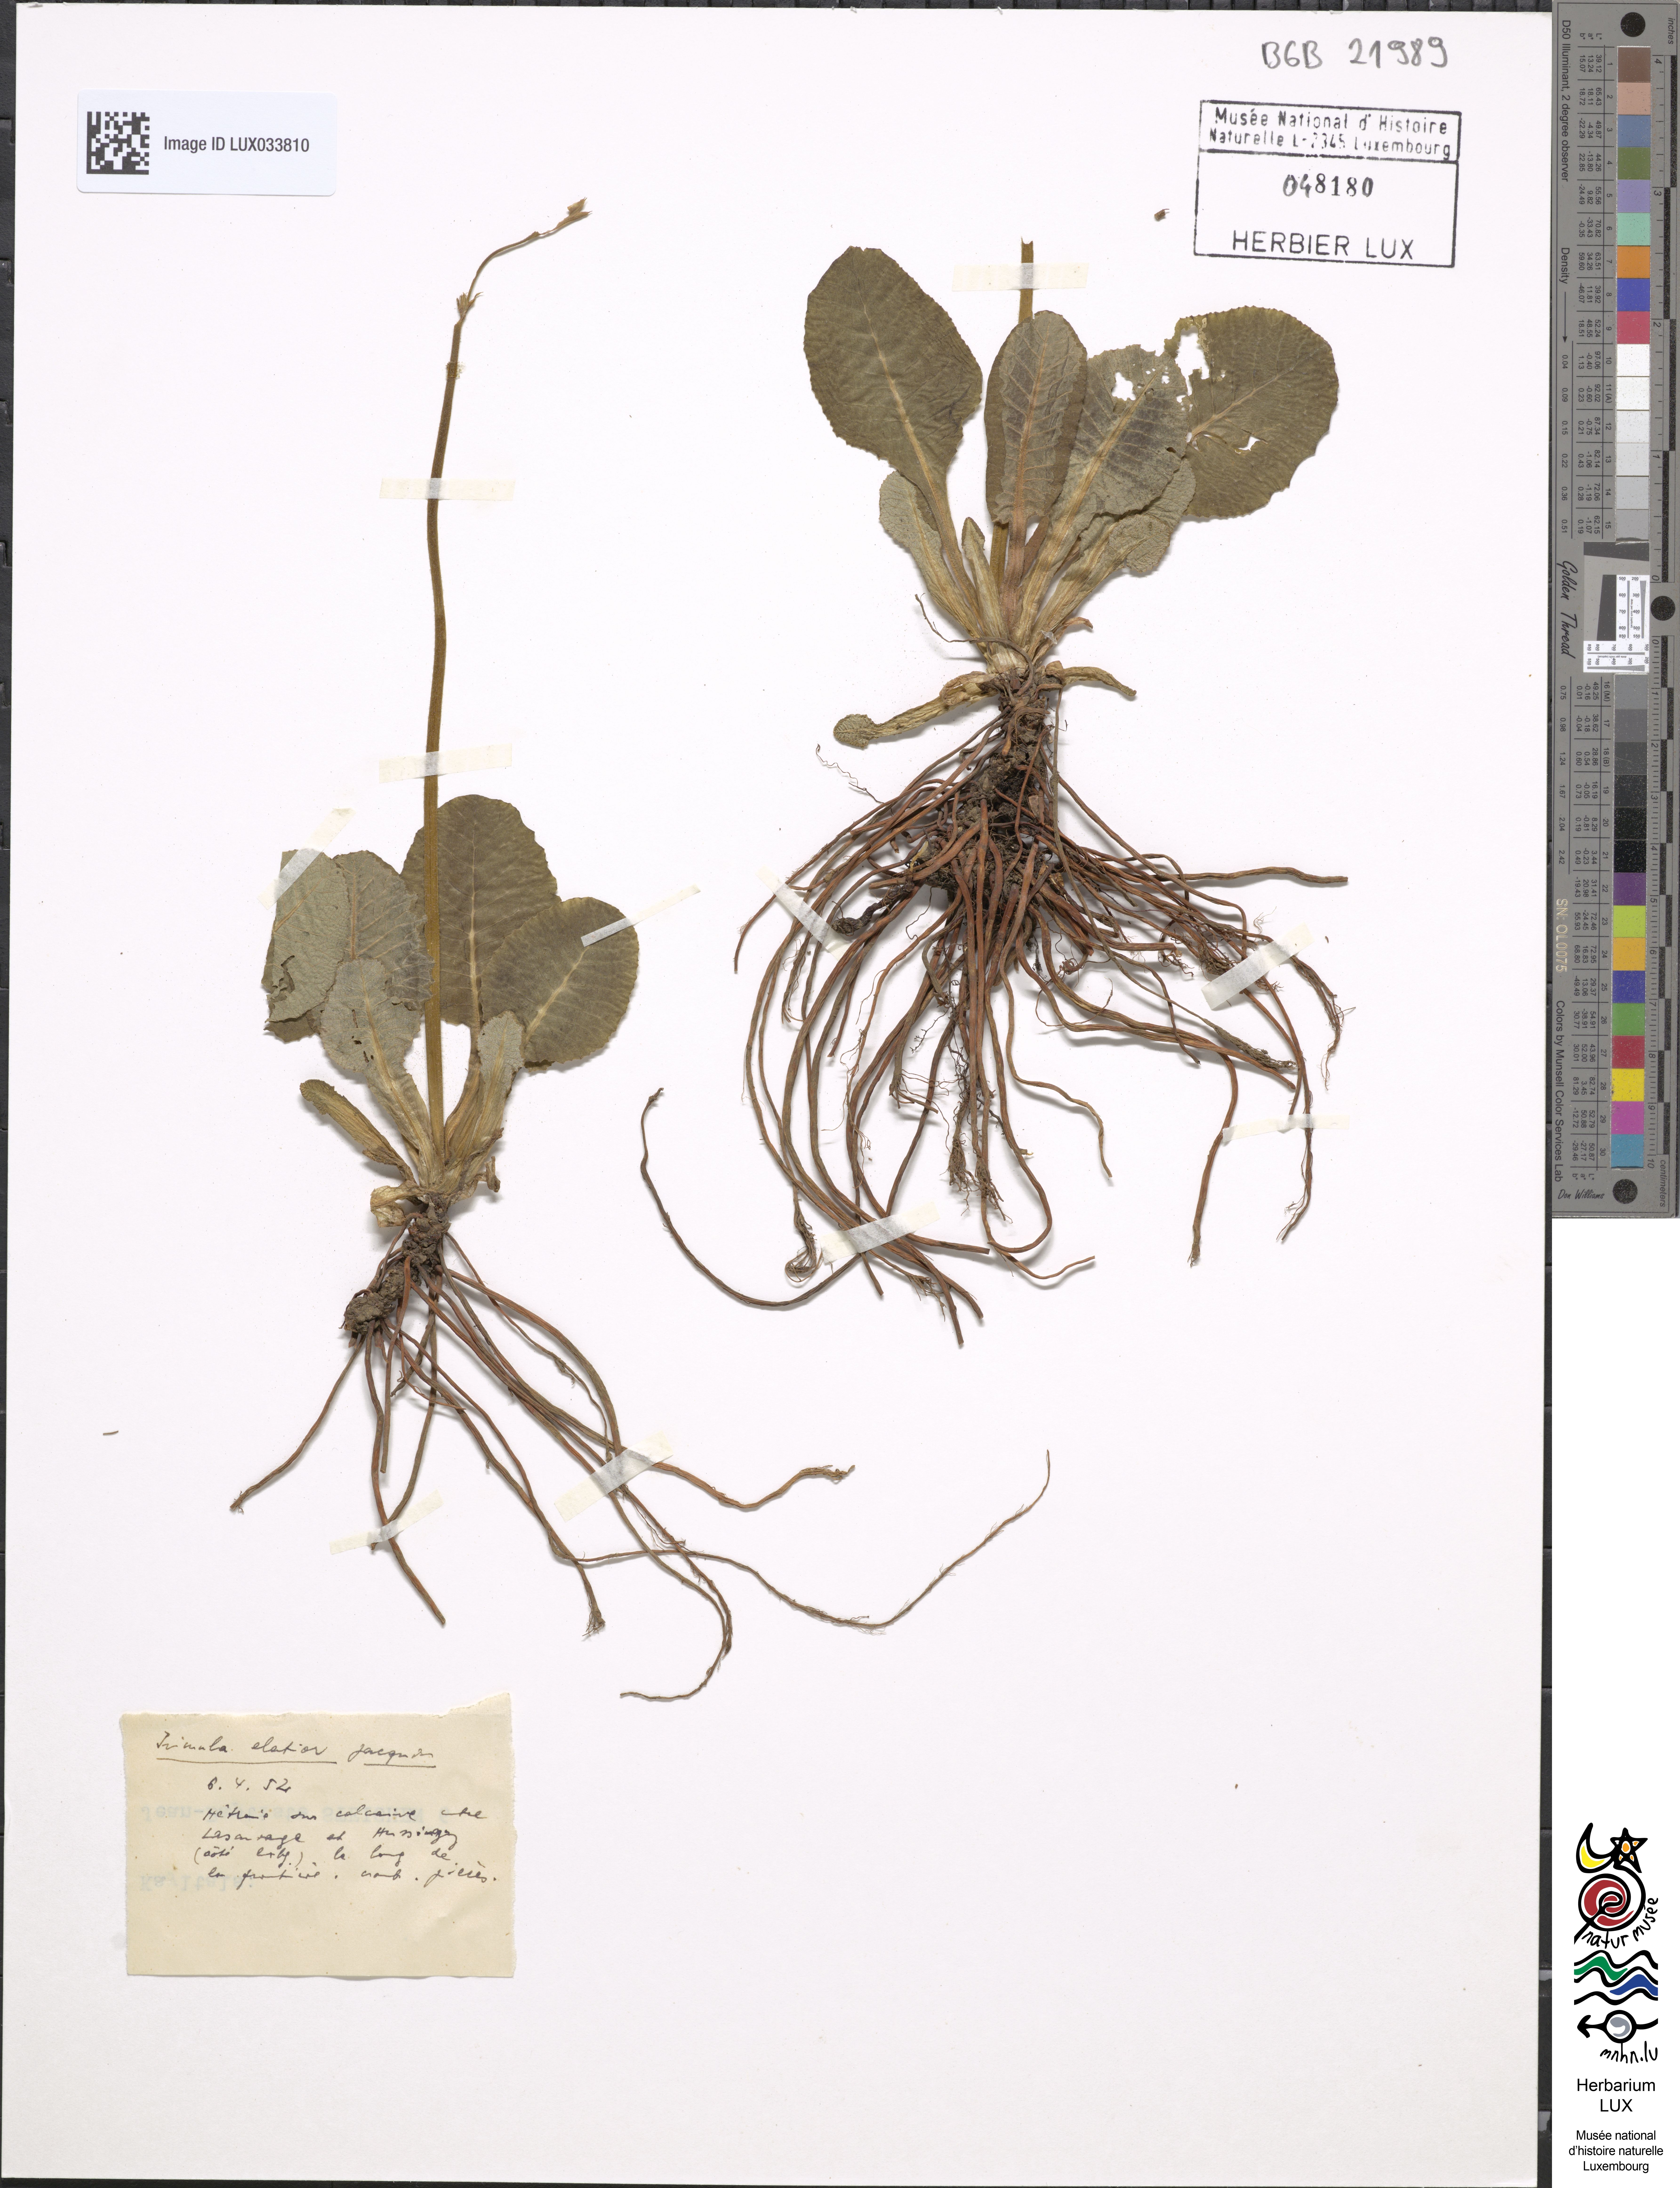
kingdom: Plantae
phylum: Tracheophyta
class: Magnoliopsida
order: Ericales
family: Primulaceae
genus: Primula
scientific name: Primula elatior
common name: Oxlip
